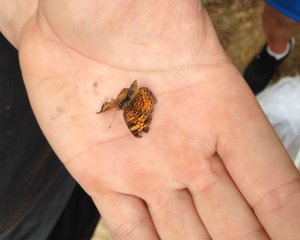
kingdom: Animalia
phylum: Arthropoda
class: Insecta
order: Lepidoptera
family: Hesperiidae
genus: Atrytone
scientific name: Atrytone delaware
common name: Delaware Skipper
